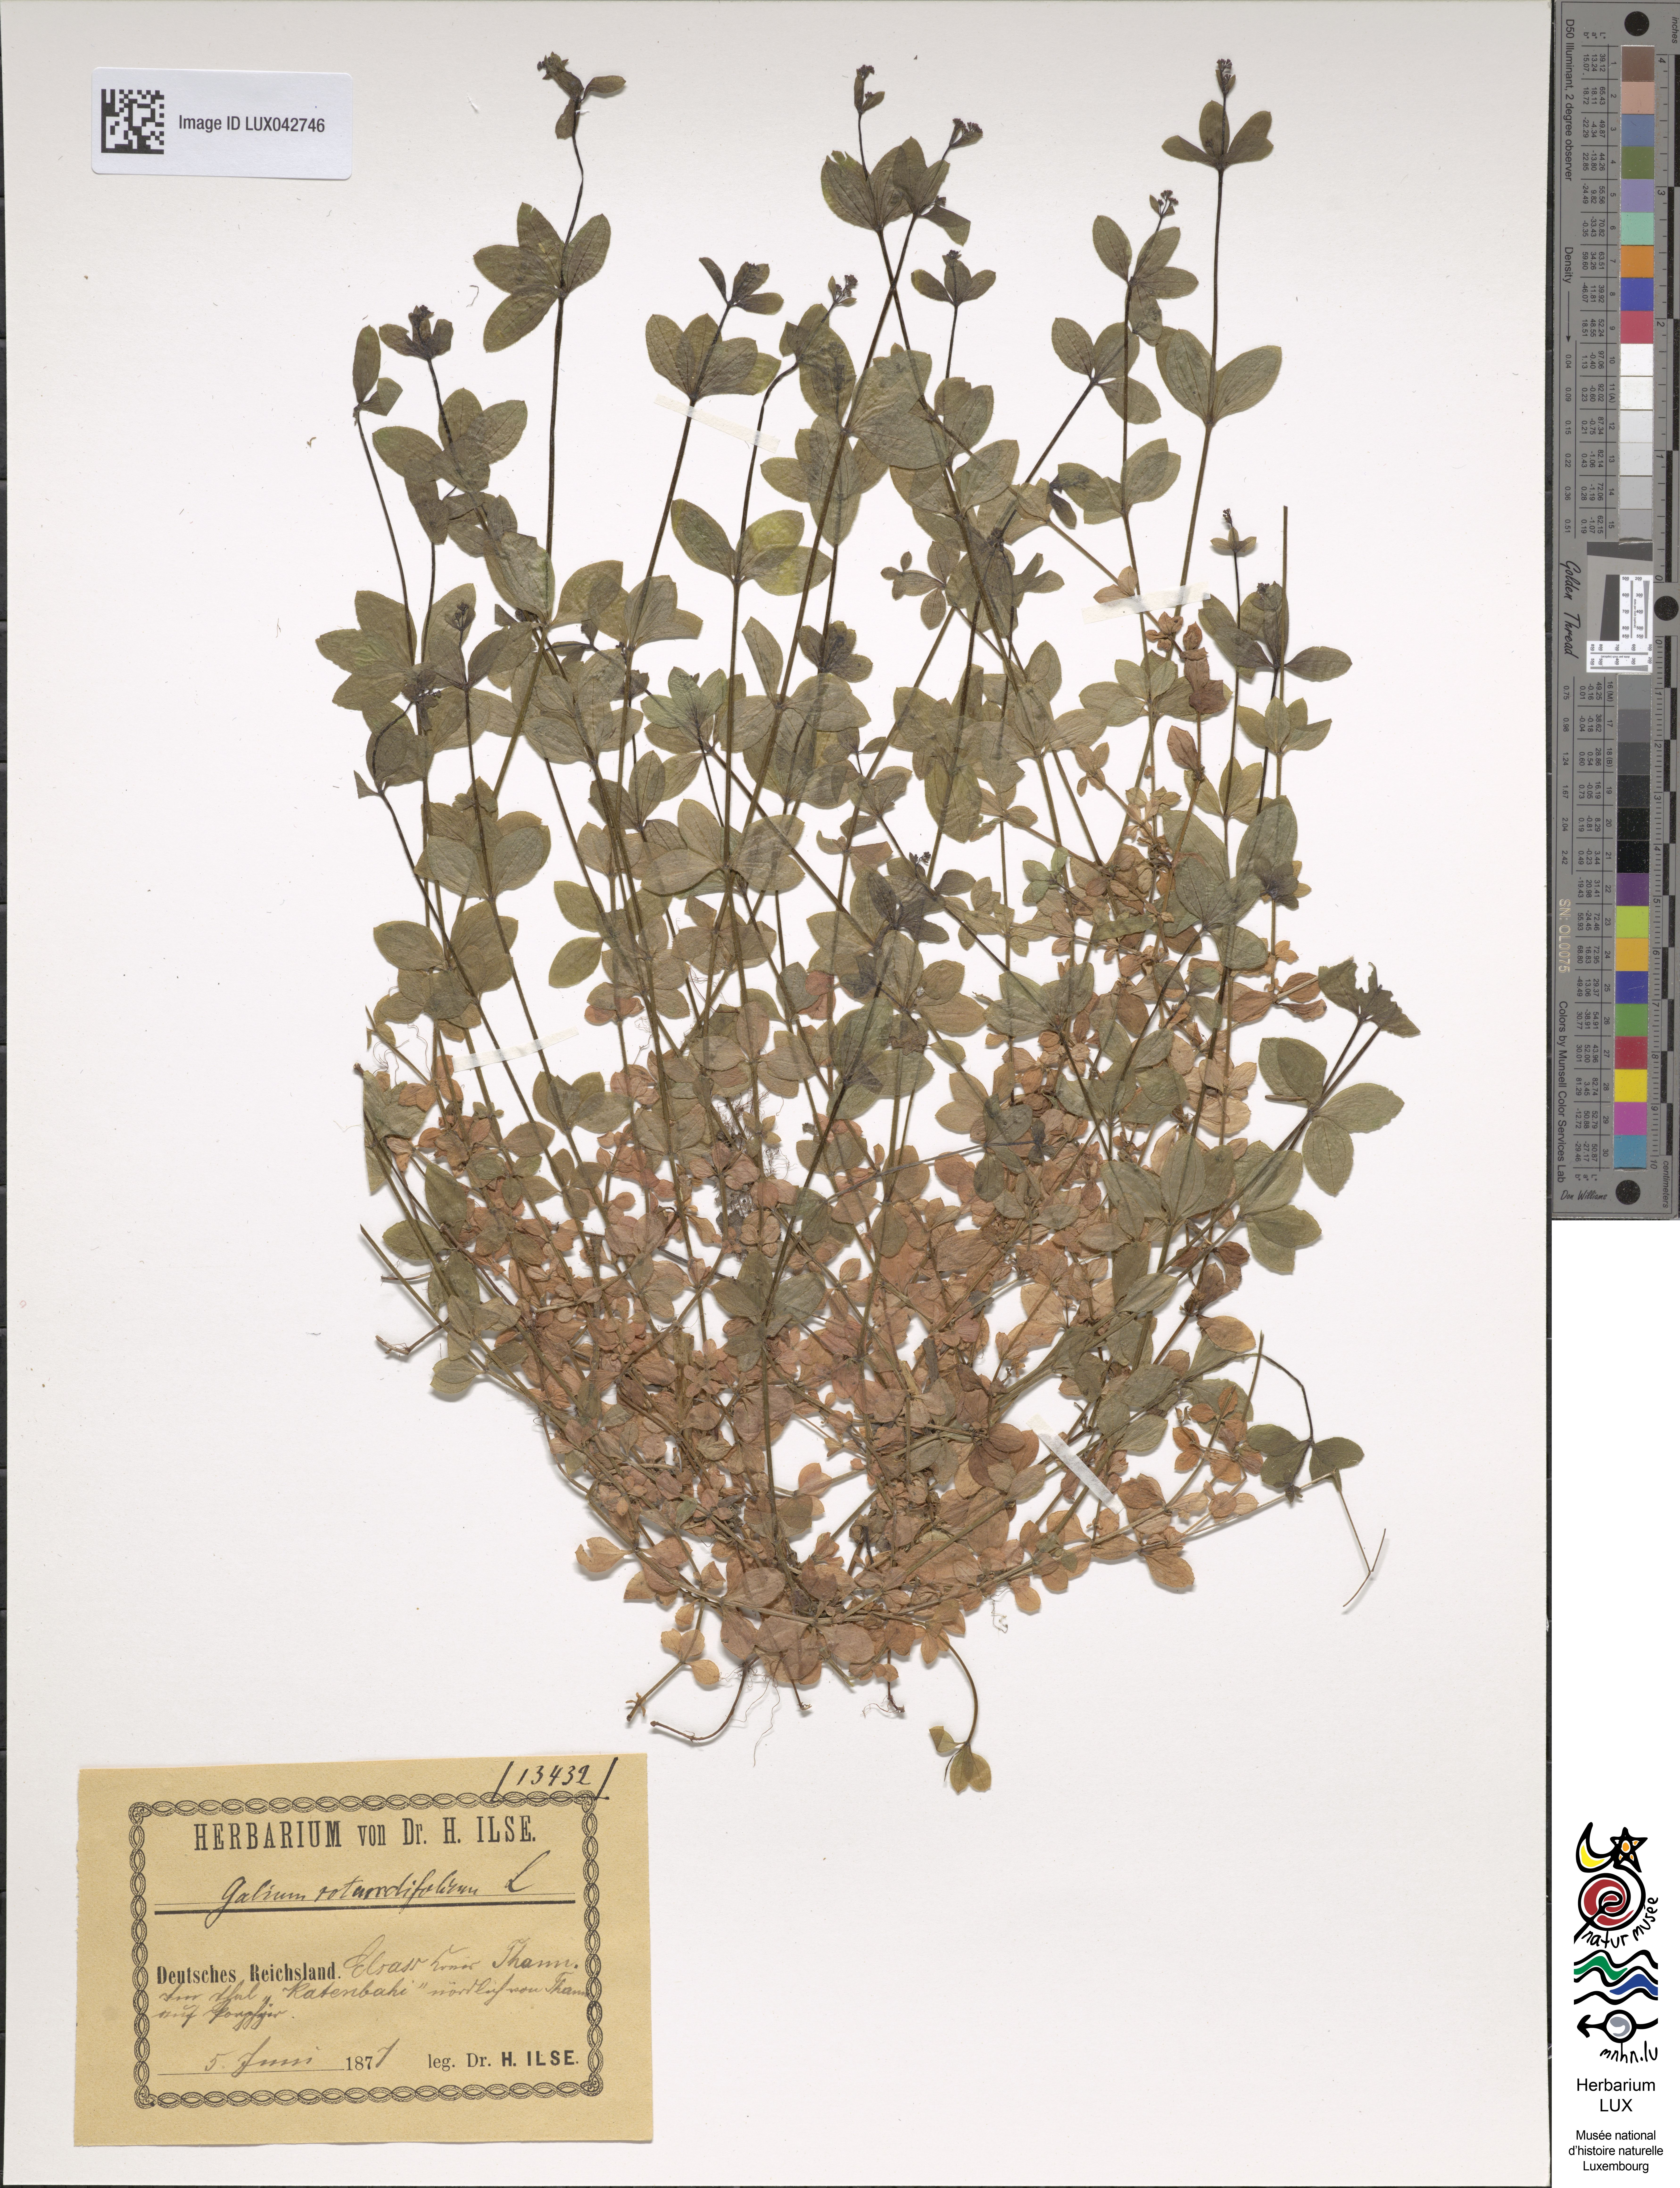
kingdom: Plantae
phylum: Tracheophyta
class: Magnoliopsida
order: Gentianales
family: Rubiaceae
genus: Galium
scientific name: Galium rotundifolium
